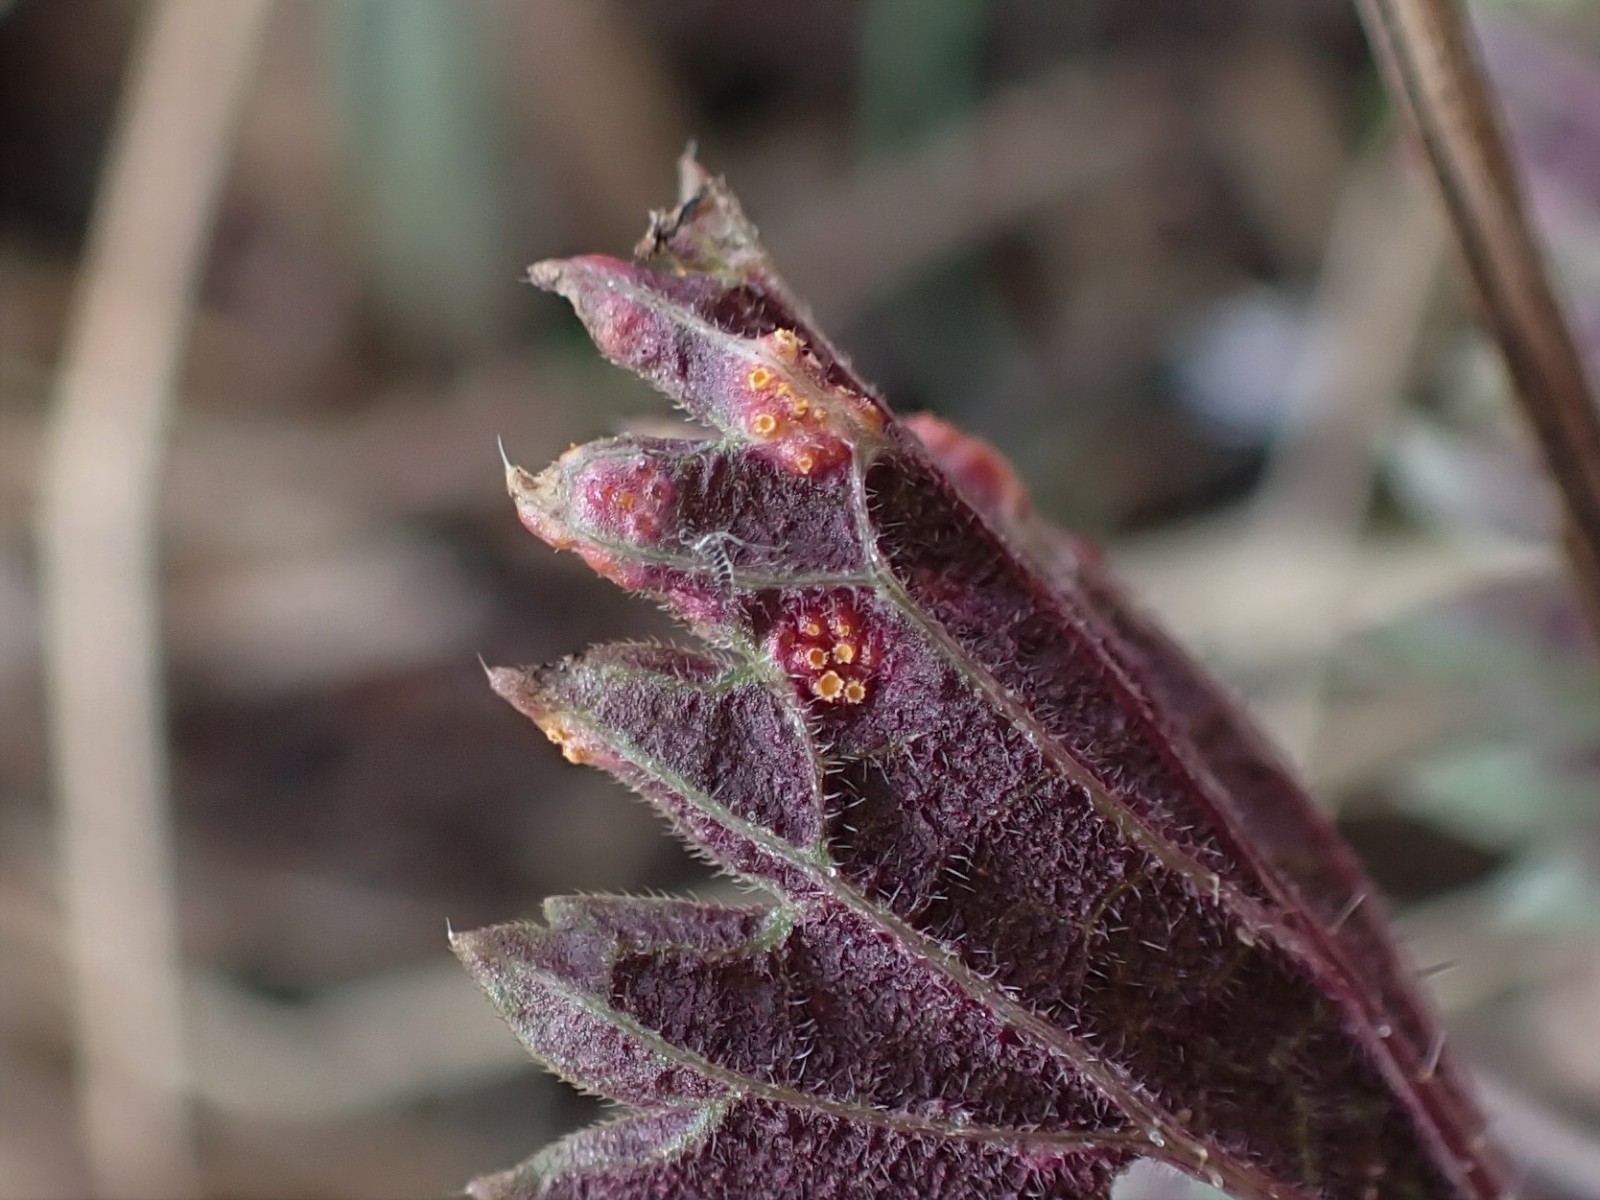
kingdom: Fungi
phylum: Basidiomycota
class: Pucciniomycetes
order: Pucciniales
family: Pucciniaceae
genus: Puccinia
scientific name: Puccinia urticata
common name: nældegalle-tvecellerust
